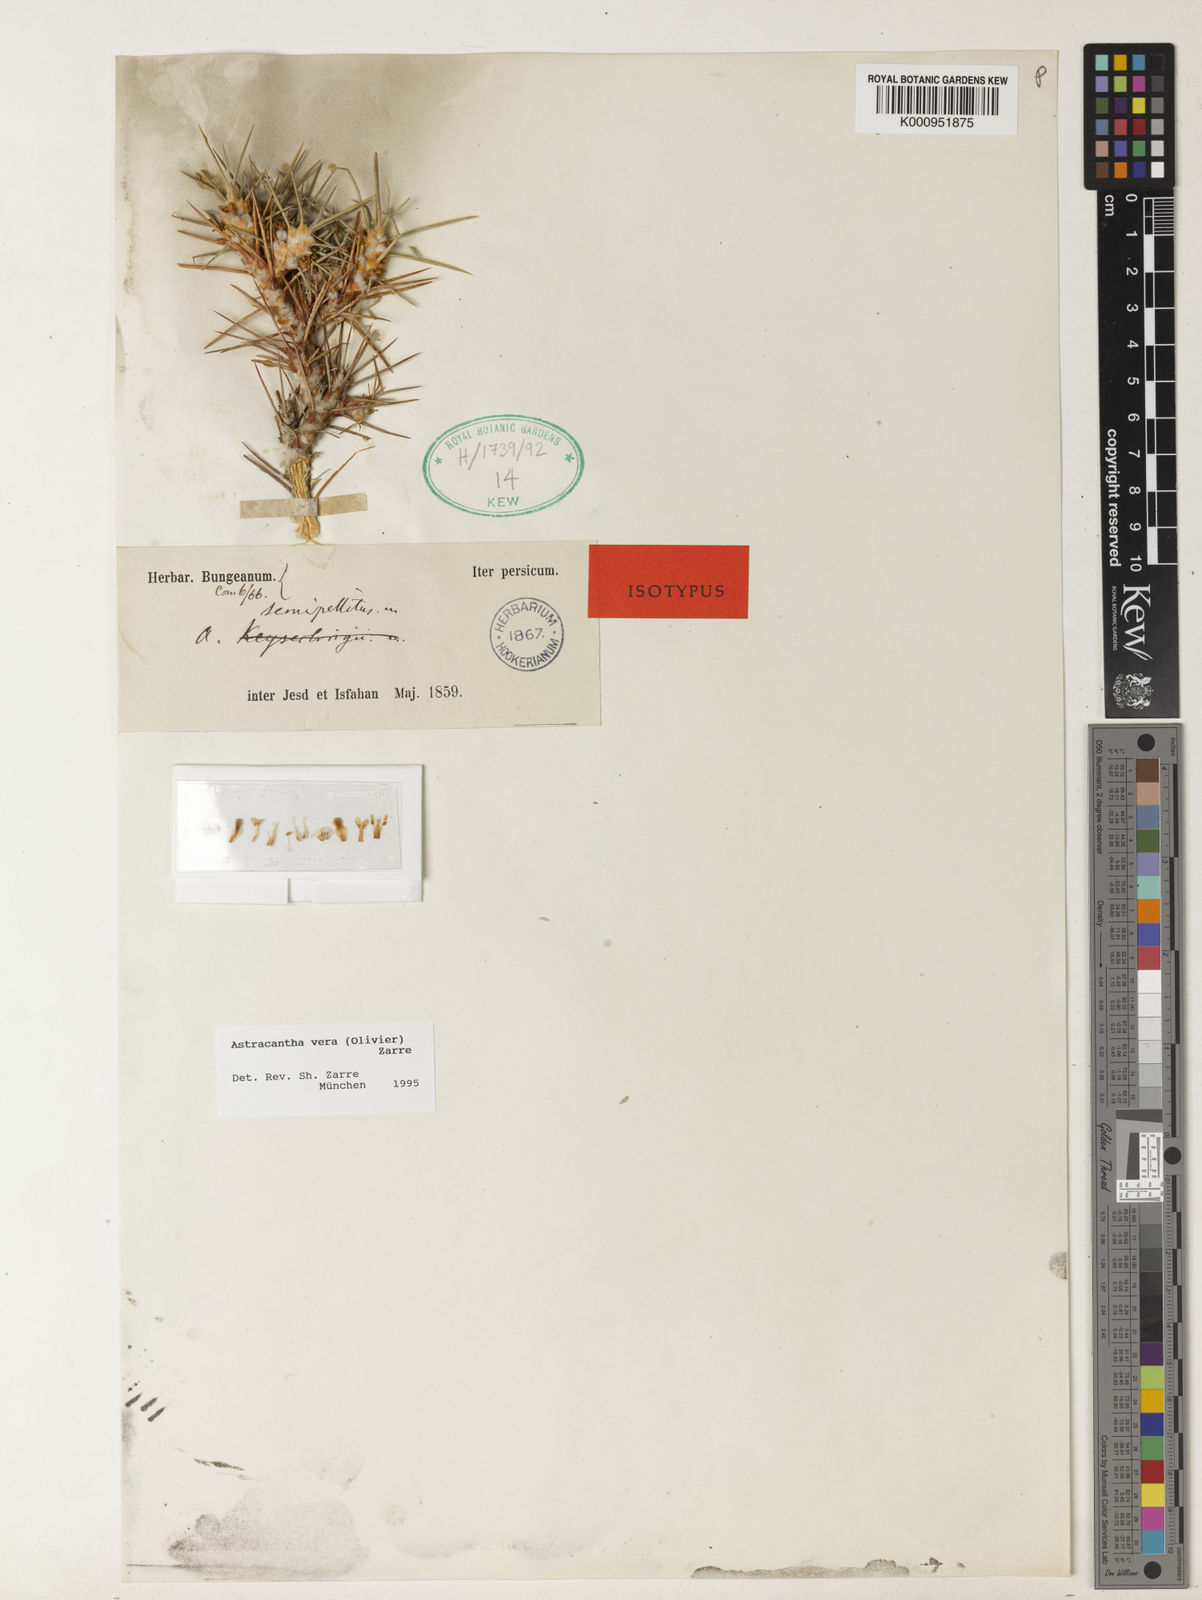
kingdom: Plantae
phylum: Tracheophyta
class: Magnoliopsida
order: Fabales
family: Fabaceae
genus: Astragalus
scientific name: Astragalus verus
